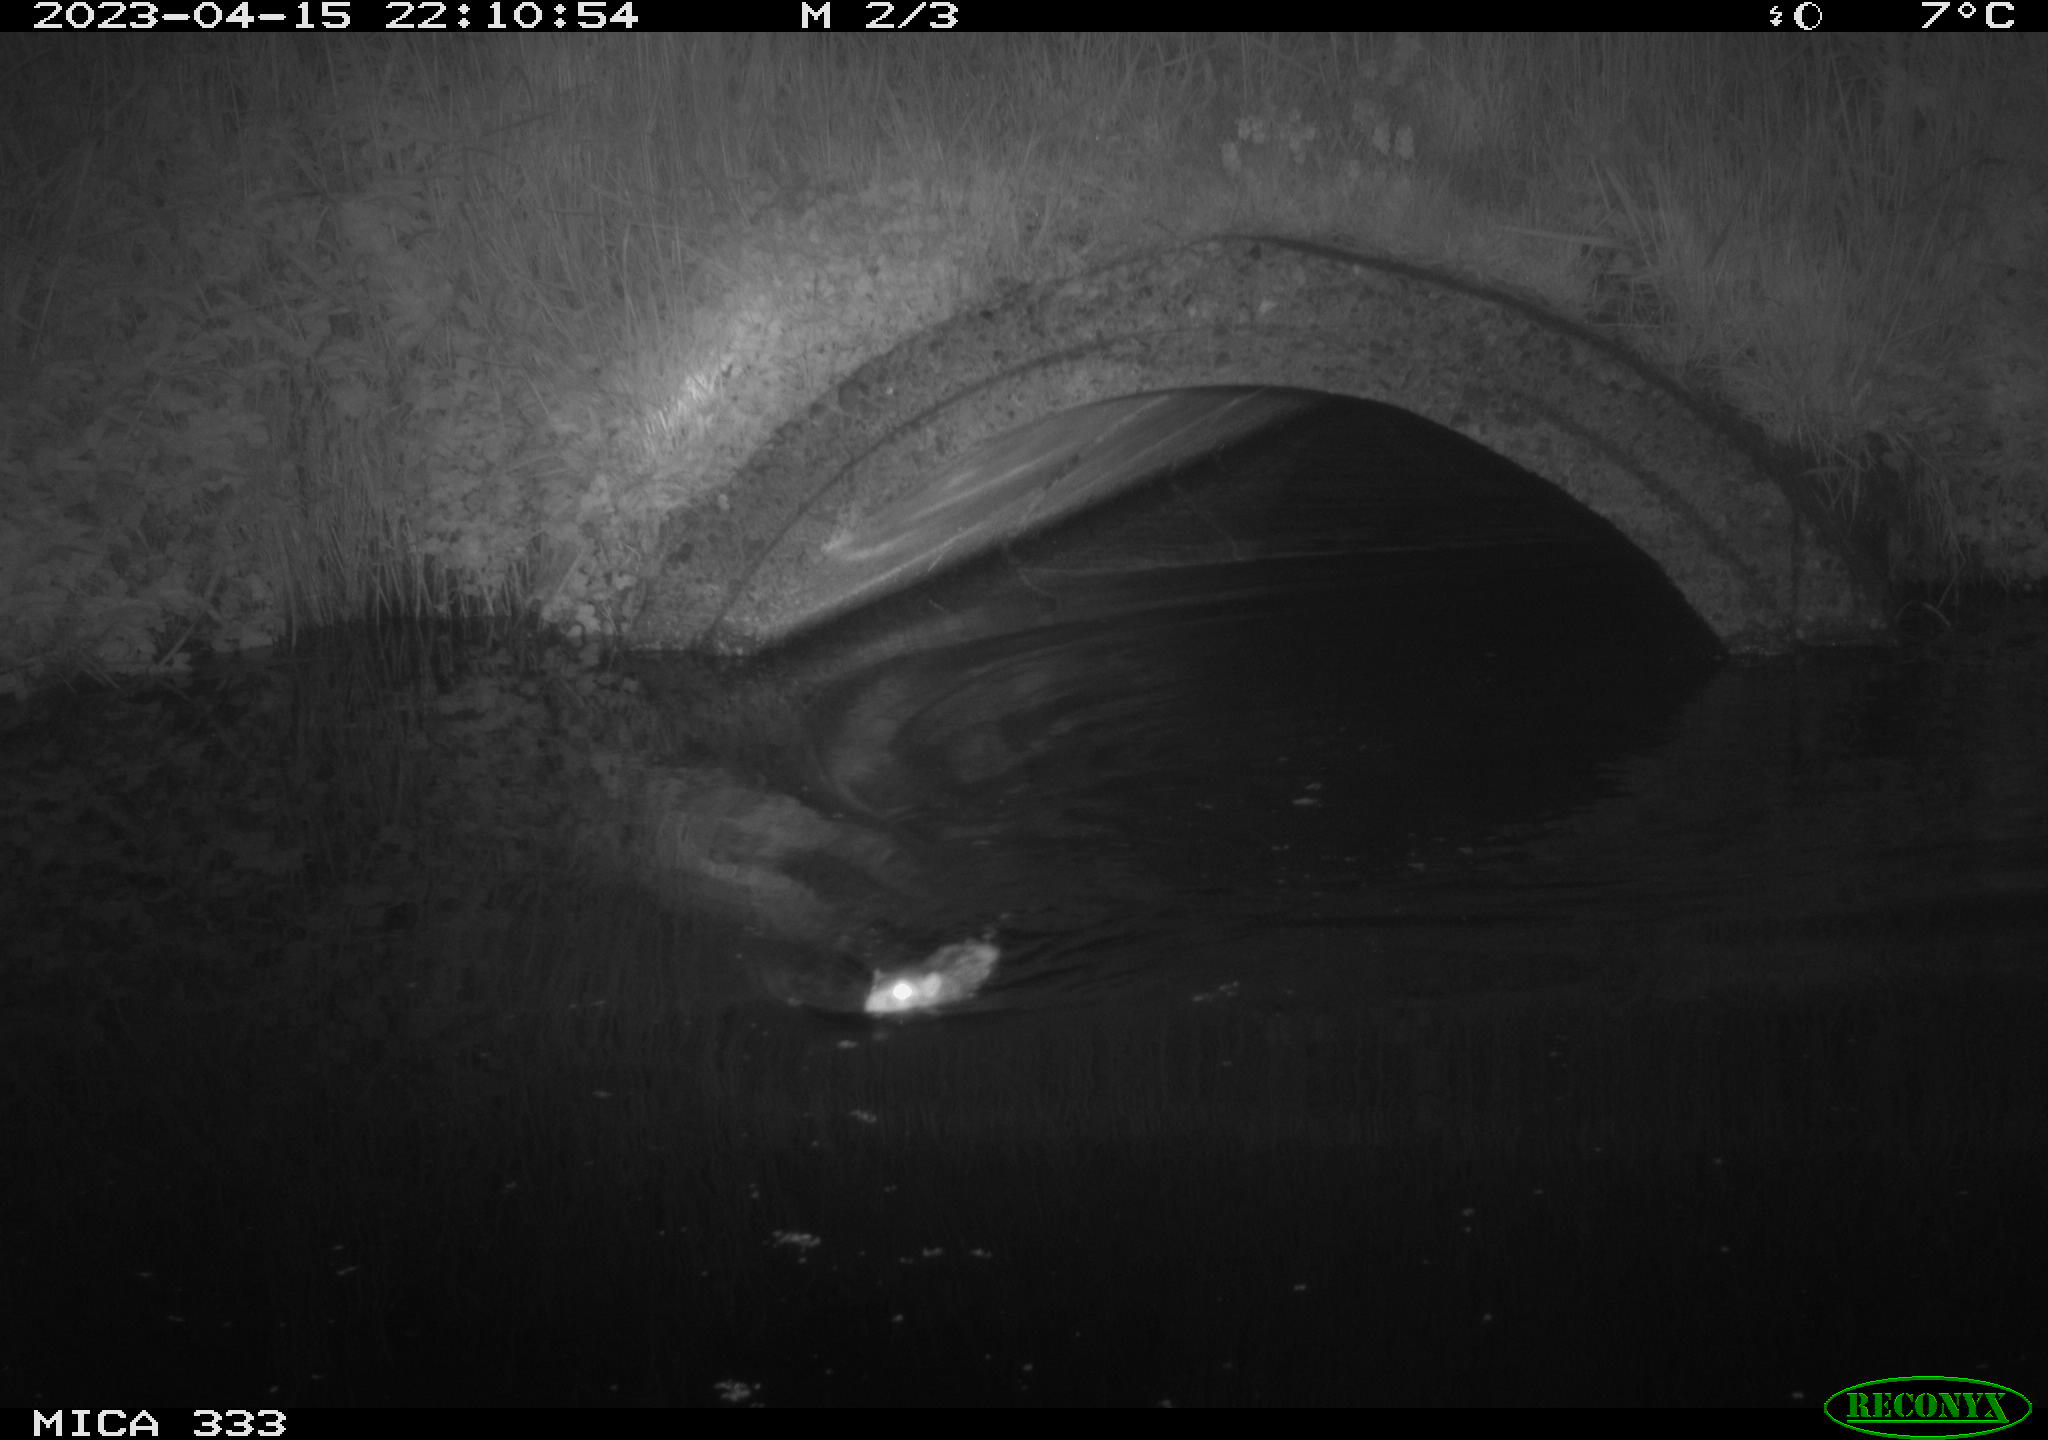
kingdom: Animalia
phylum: Chordata
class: Mammalia
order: Rodentia
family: Muridae
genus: Rattus
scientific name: Rattus norvegicus
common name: Brown rat
